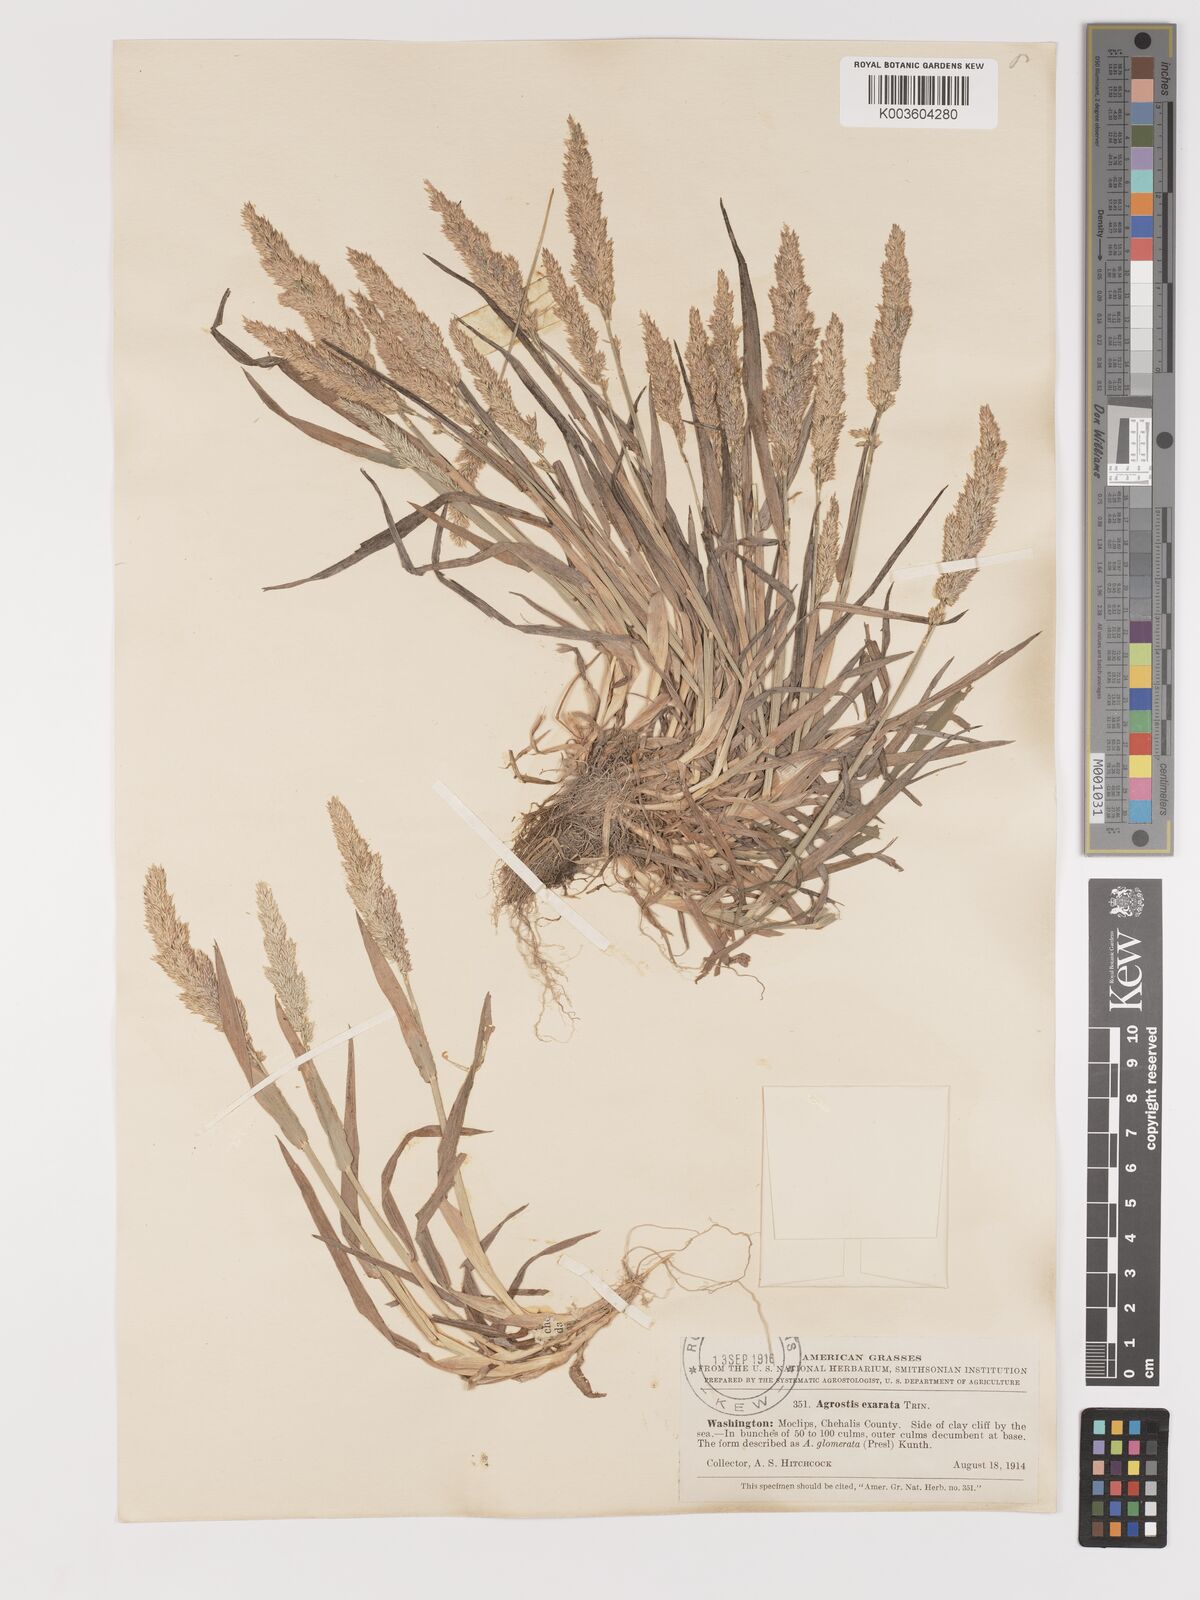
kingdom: Plantae
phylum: Tracheophyta
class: Liliopsida
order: Poales
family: Poaceae
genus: Agrostis
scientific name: Agrostis exarata
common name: Spike bent
